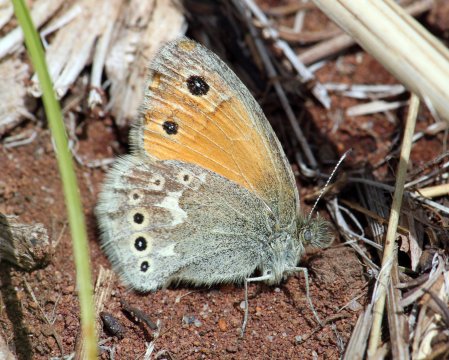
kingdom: Animalia
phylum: Arthropoda
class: Insecta
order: Lepidoptera
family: Nymphalidae
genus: Coenonympha
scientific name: Coenonympha tullia
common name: Large Heath
